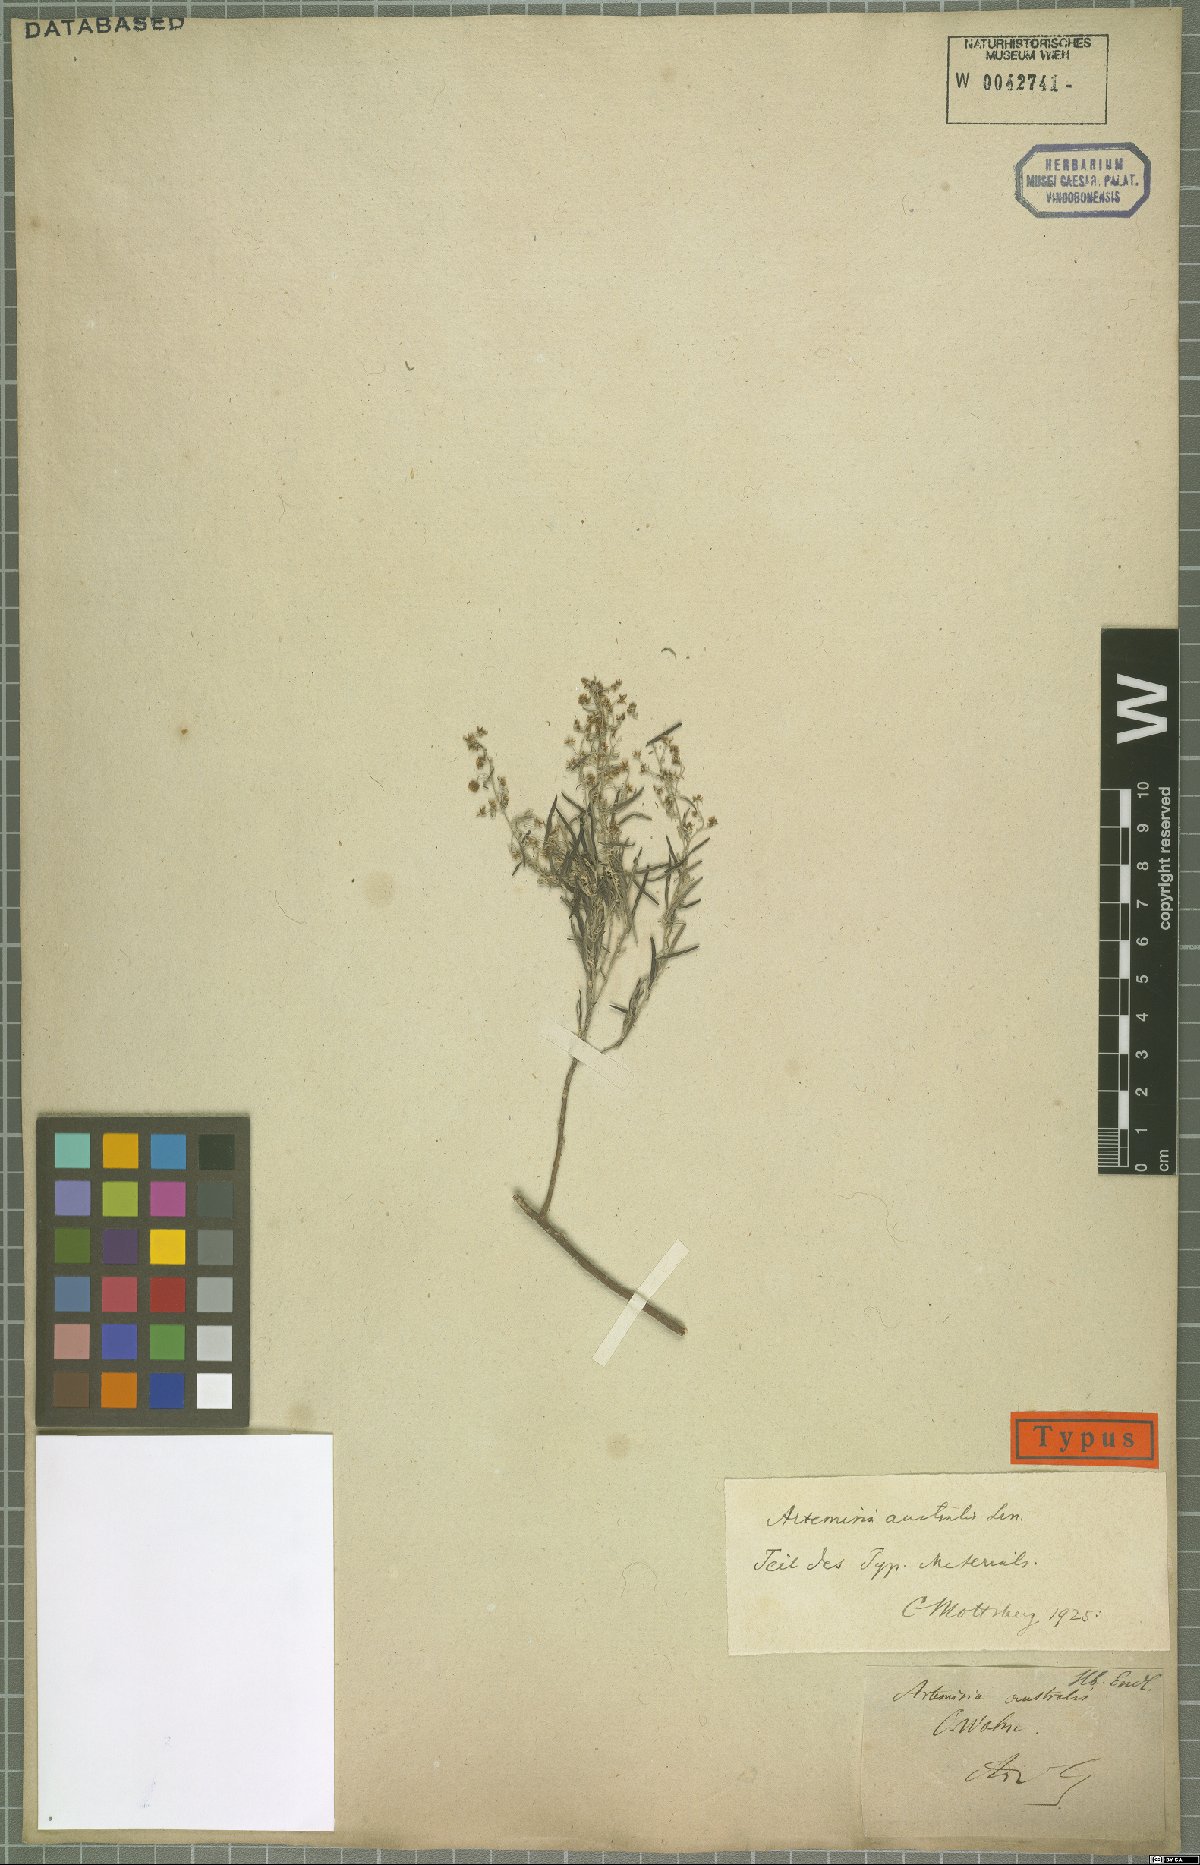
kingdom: Plantae
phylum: Tracheophyta
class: Magnoliopsida
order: Asterales
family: Asteraceae
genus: Artemisia
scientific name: Artemisia australis
